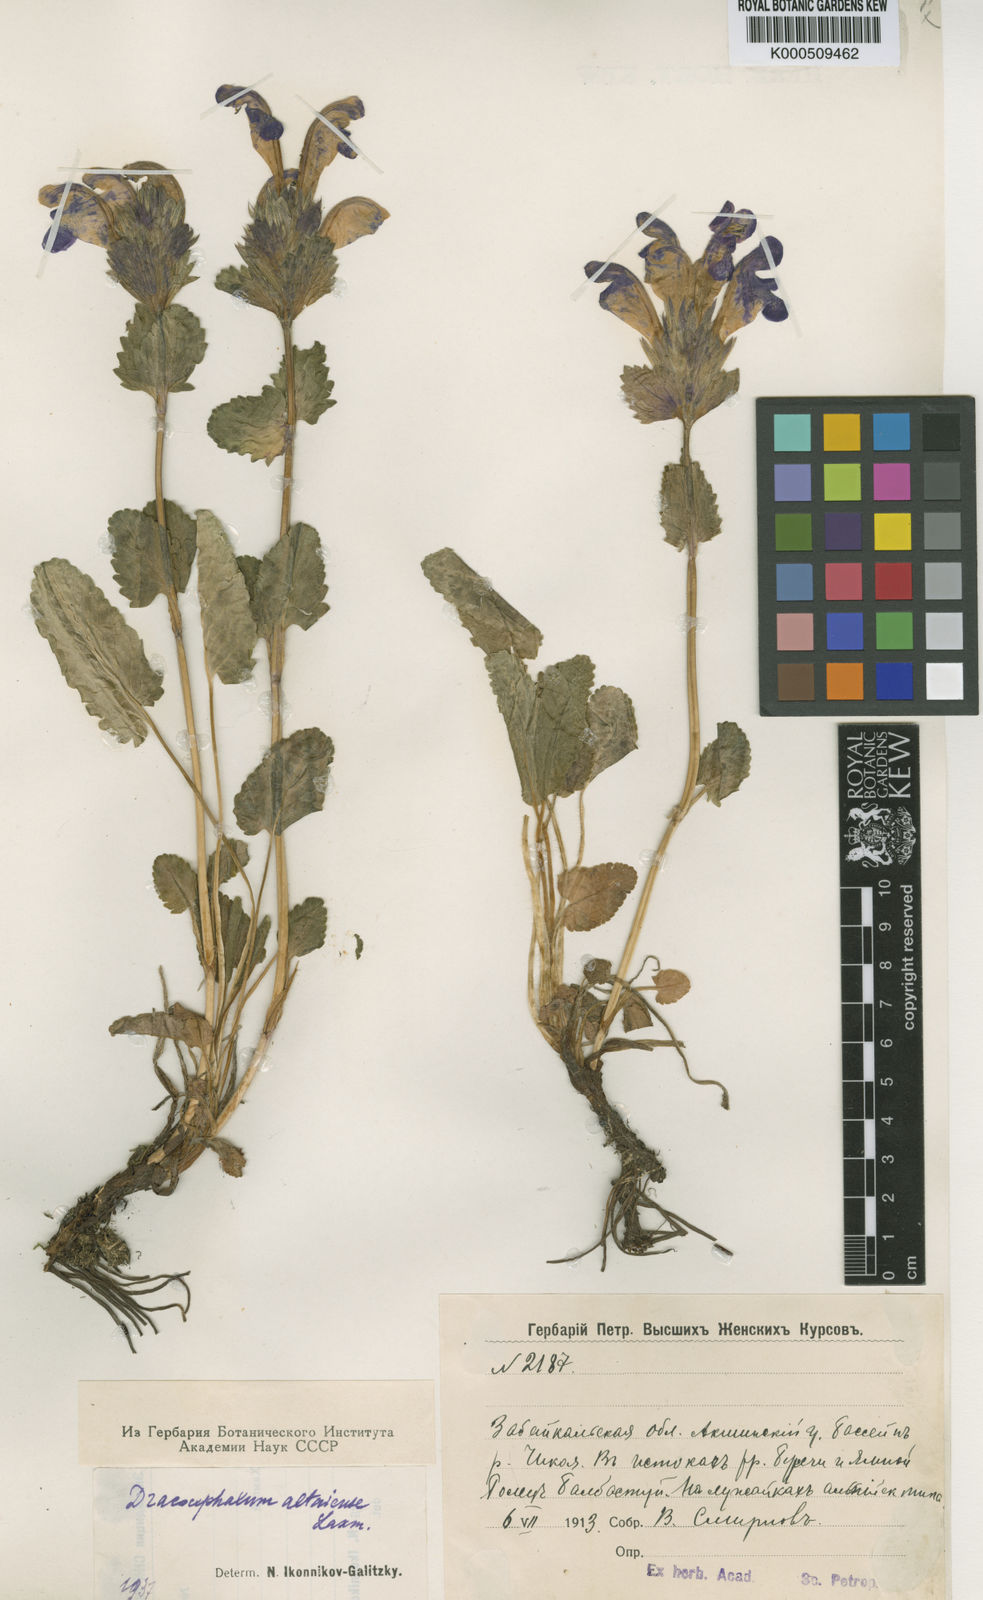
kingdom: Plantae
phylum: Tracheophyta
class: Magnoliopsida
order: Lamiales
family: Lamiaceae
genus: Dracocephalum
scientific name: Dracocephalum grandiflorum
